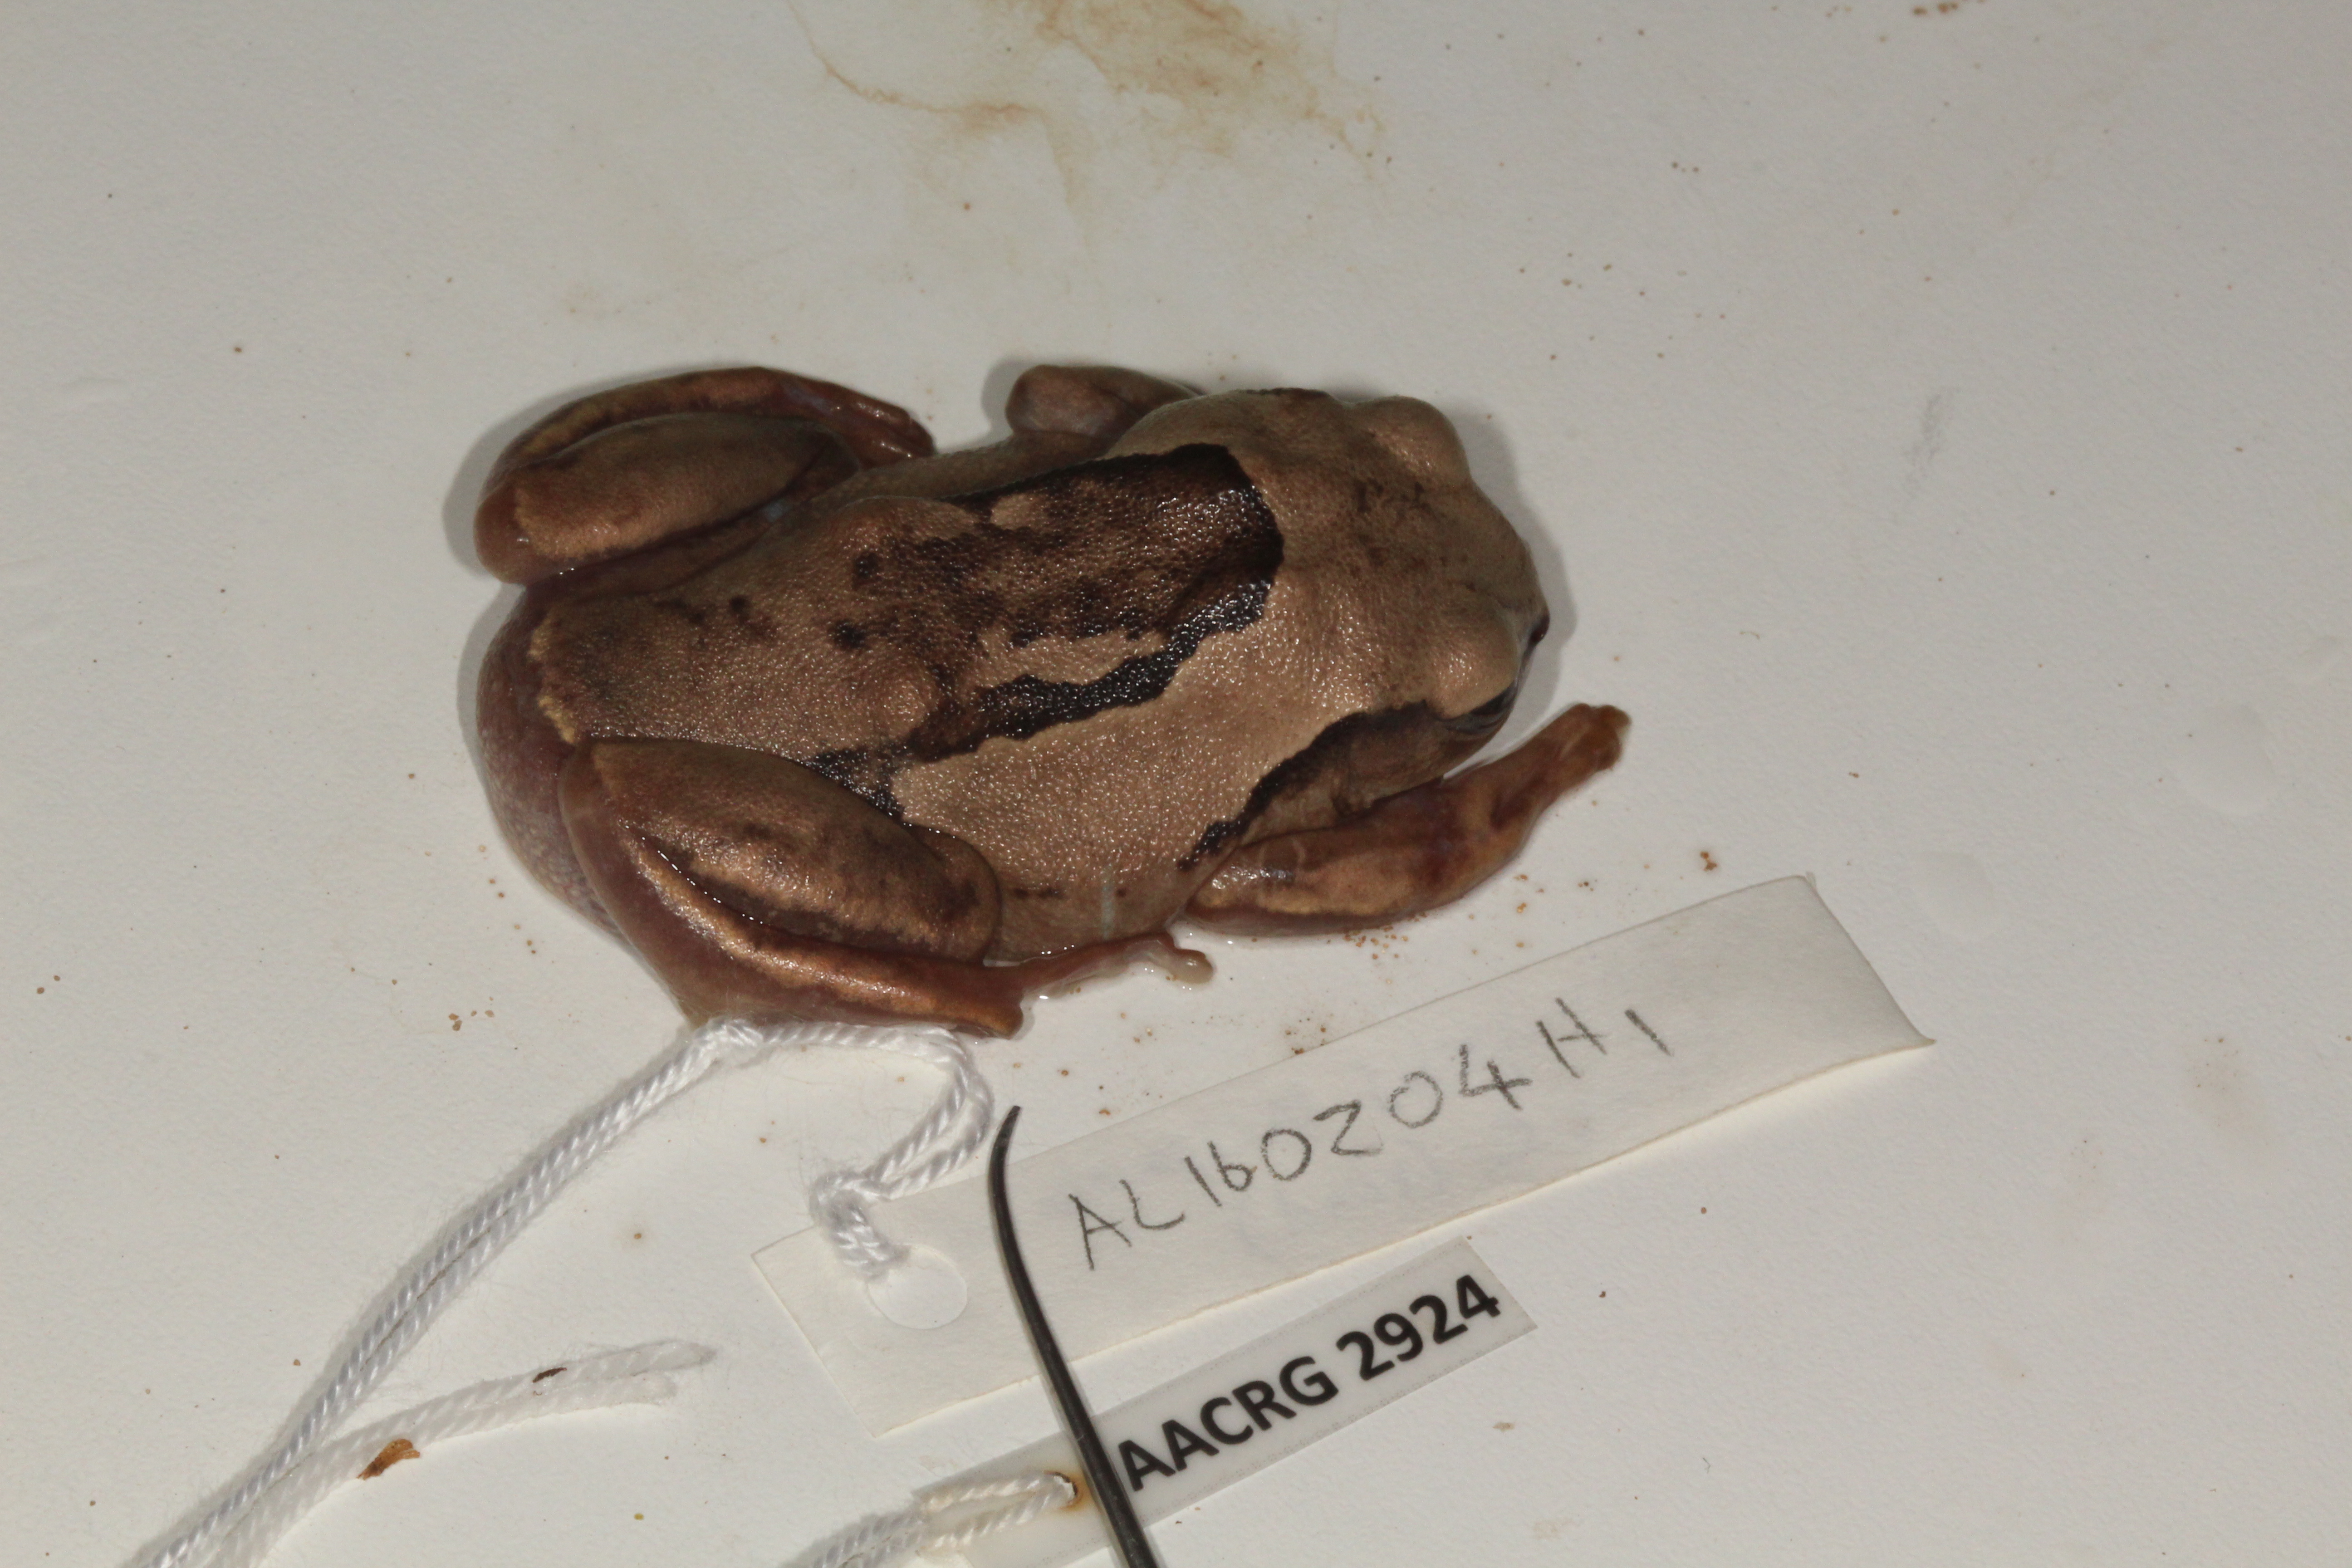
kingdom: Animalia
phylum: Chordata
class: Amphibia
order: Anura
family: Arthroleptidae
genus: Leptopelis
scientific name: Leptopelis mossambicus
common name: Mozambique tree frog
